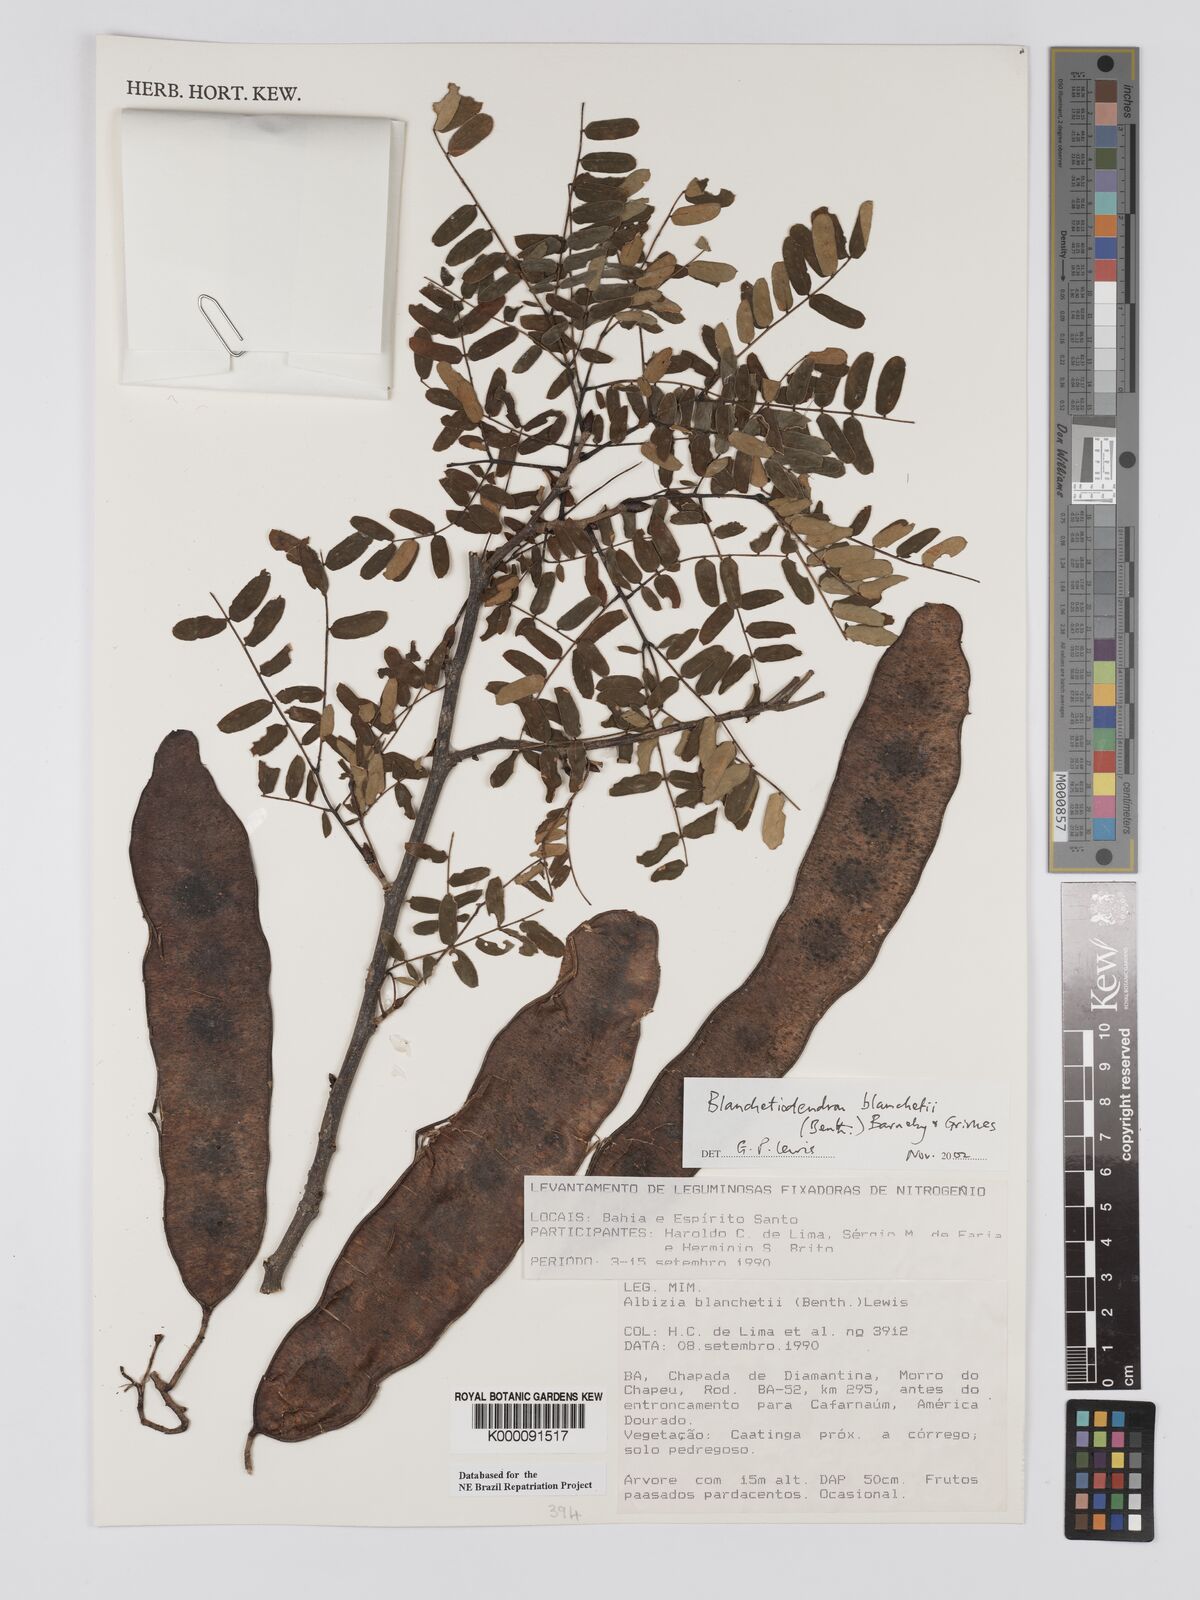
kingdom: Plantae
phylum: Tracheophyta
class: Magnoliopsida
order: Fabales
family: Fabaceae
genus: Blanchetiodendron
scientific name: Blanchetiodendron blanchetii
